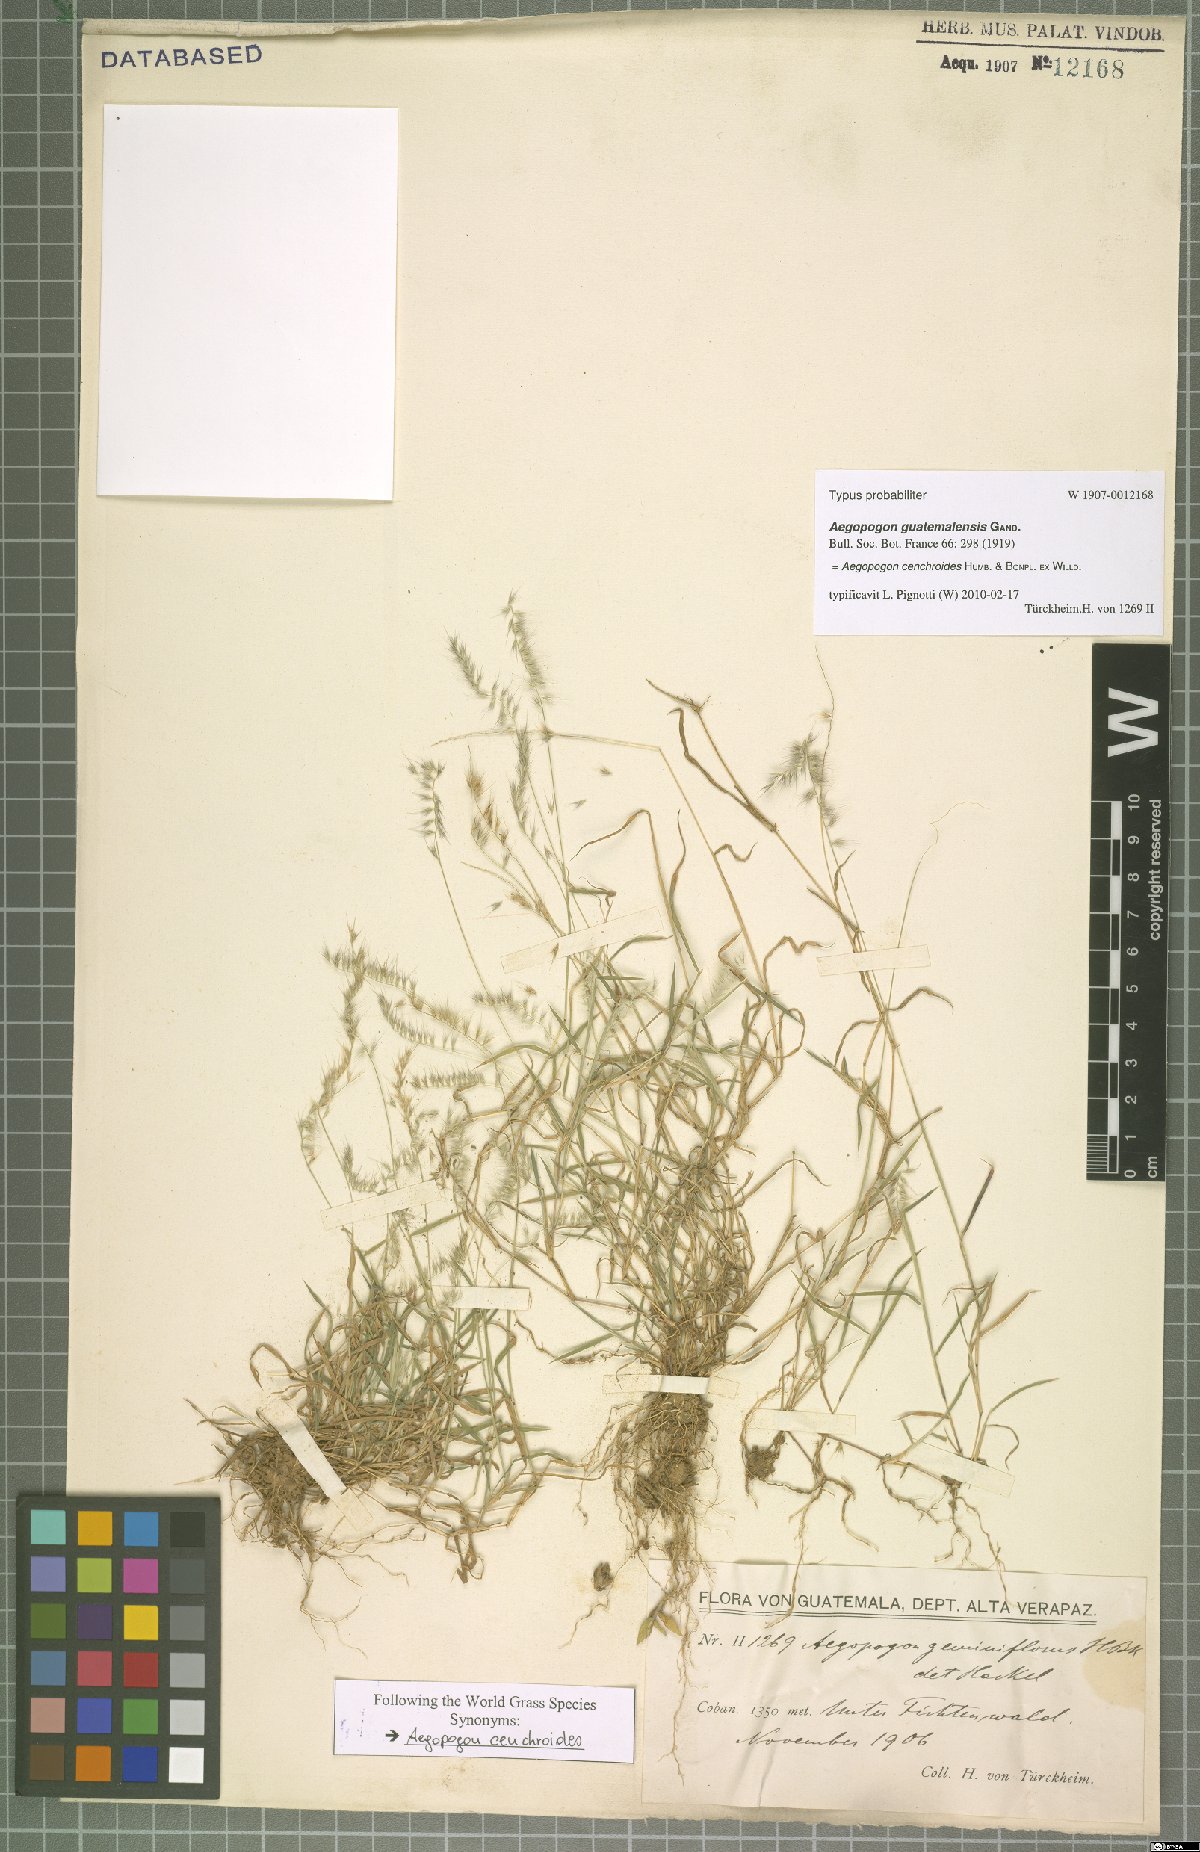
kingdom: Plantae
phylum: Tracheophyta
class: Liliopsida
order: Poales
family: Poaceae
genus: Muhlenbergia
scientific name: Muhlenbergia cenchroides
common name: Relaxgrass
